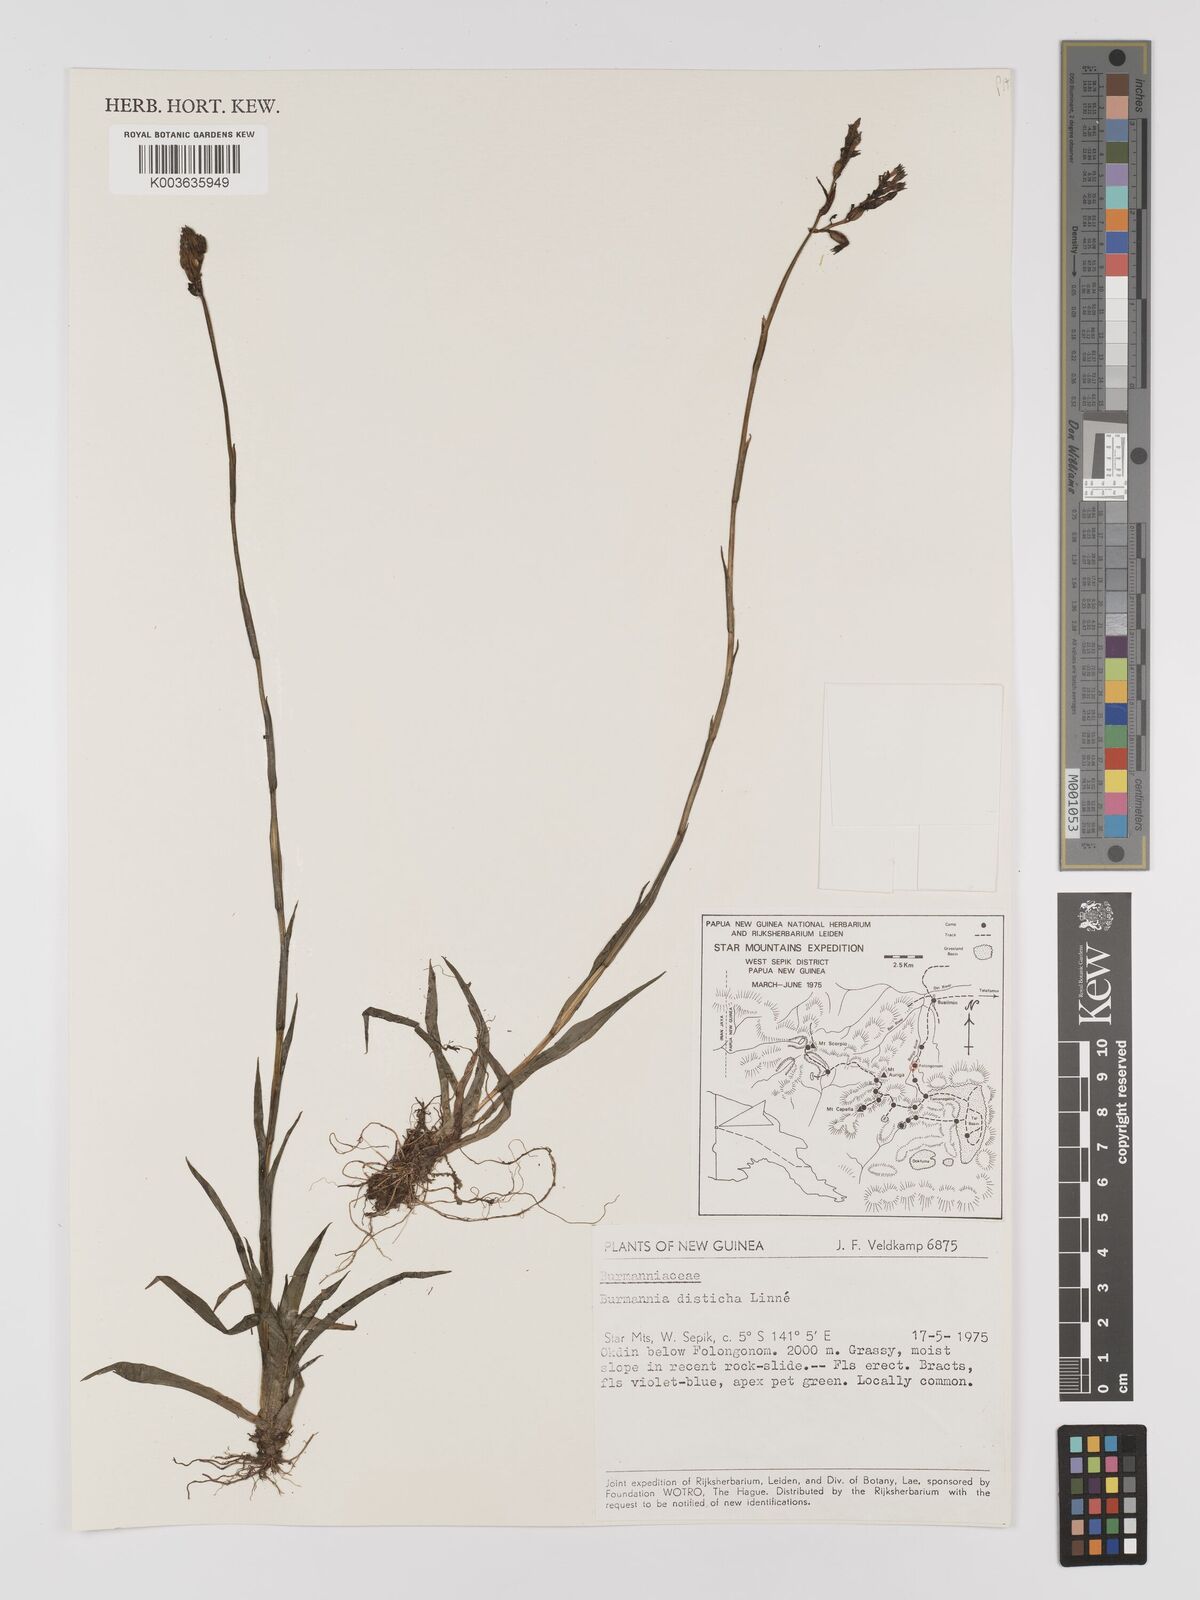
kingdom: Plantae
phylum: Tracheophyta
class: Liliopsida
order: Dioscoreales
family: Burmanniaceae
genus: Burmannia
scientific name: Burmannia disticha
